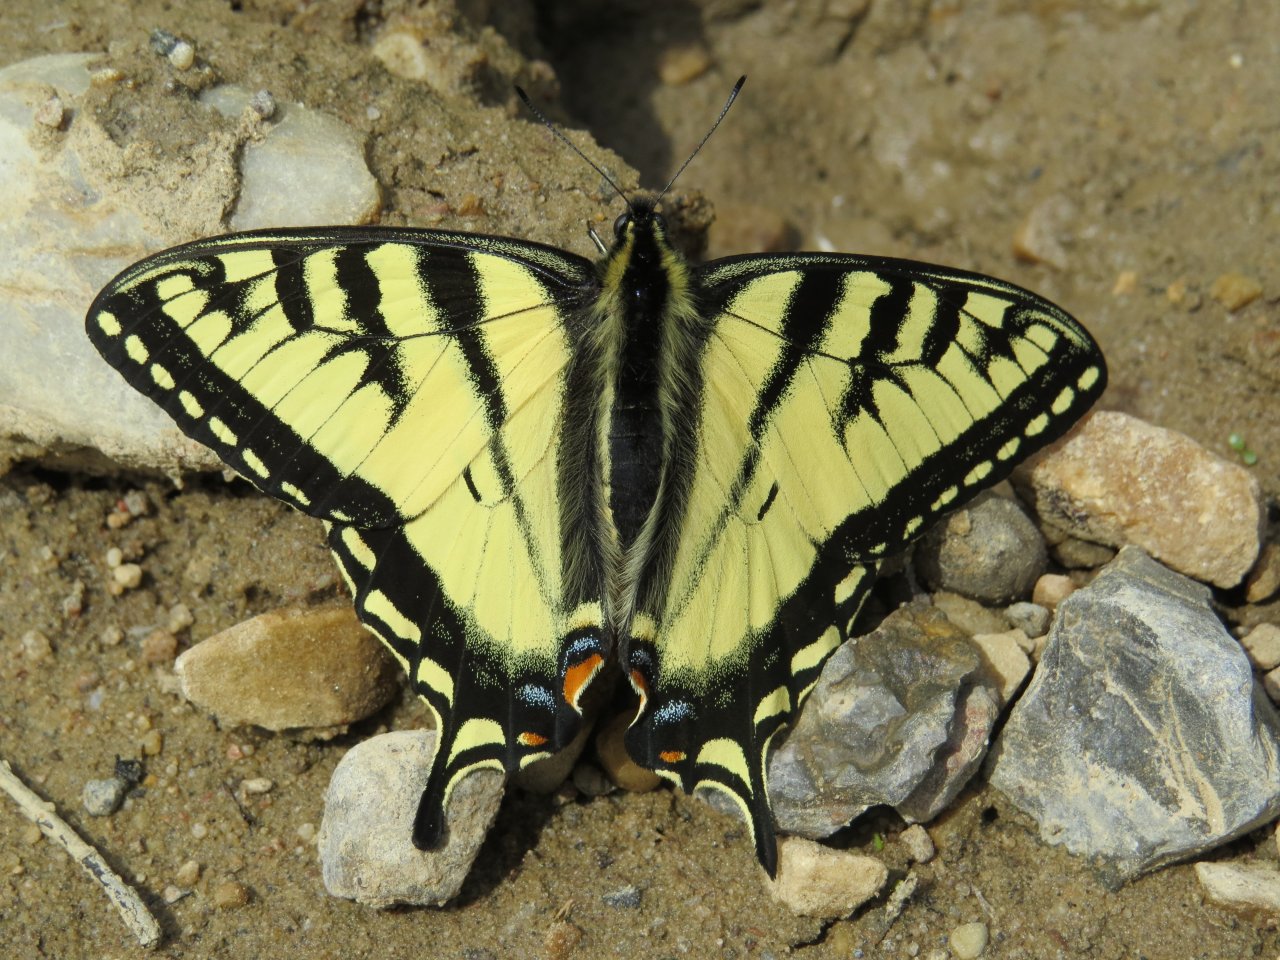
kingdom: Animalia
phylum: Arthropoda
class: Insecta
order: Lepidoptera
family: Papilionidae
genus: Pterourus
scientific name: Pterourus canadensis
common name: Canadian Tiger Swallowtail
